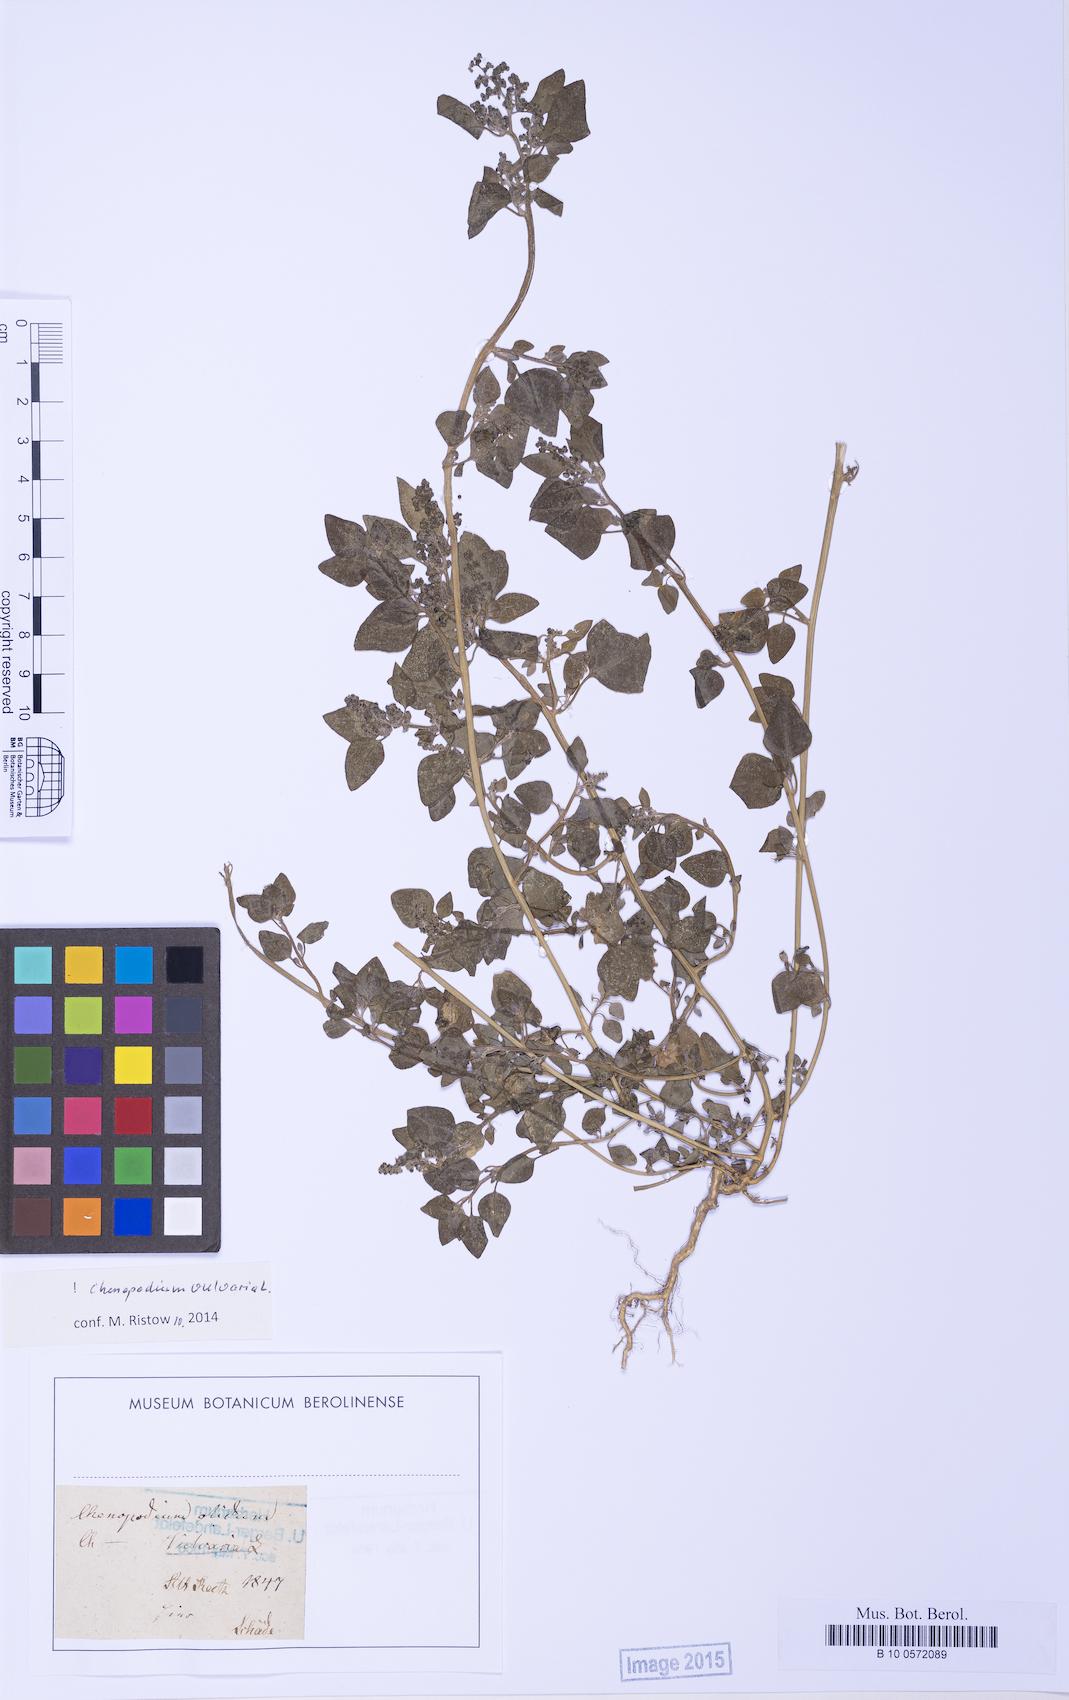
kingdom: Plantae
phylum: Tracheophyta
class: Magnoliopsida
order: Caryophyllales
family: Amaranthaceae
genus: Chenopodium
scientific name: Chenopodium vulvaria
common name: Stinking goosefoot
